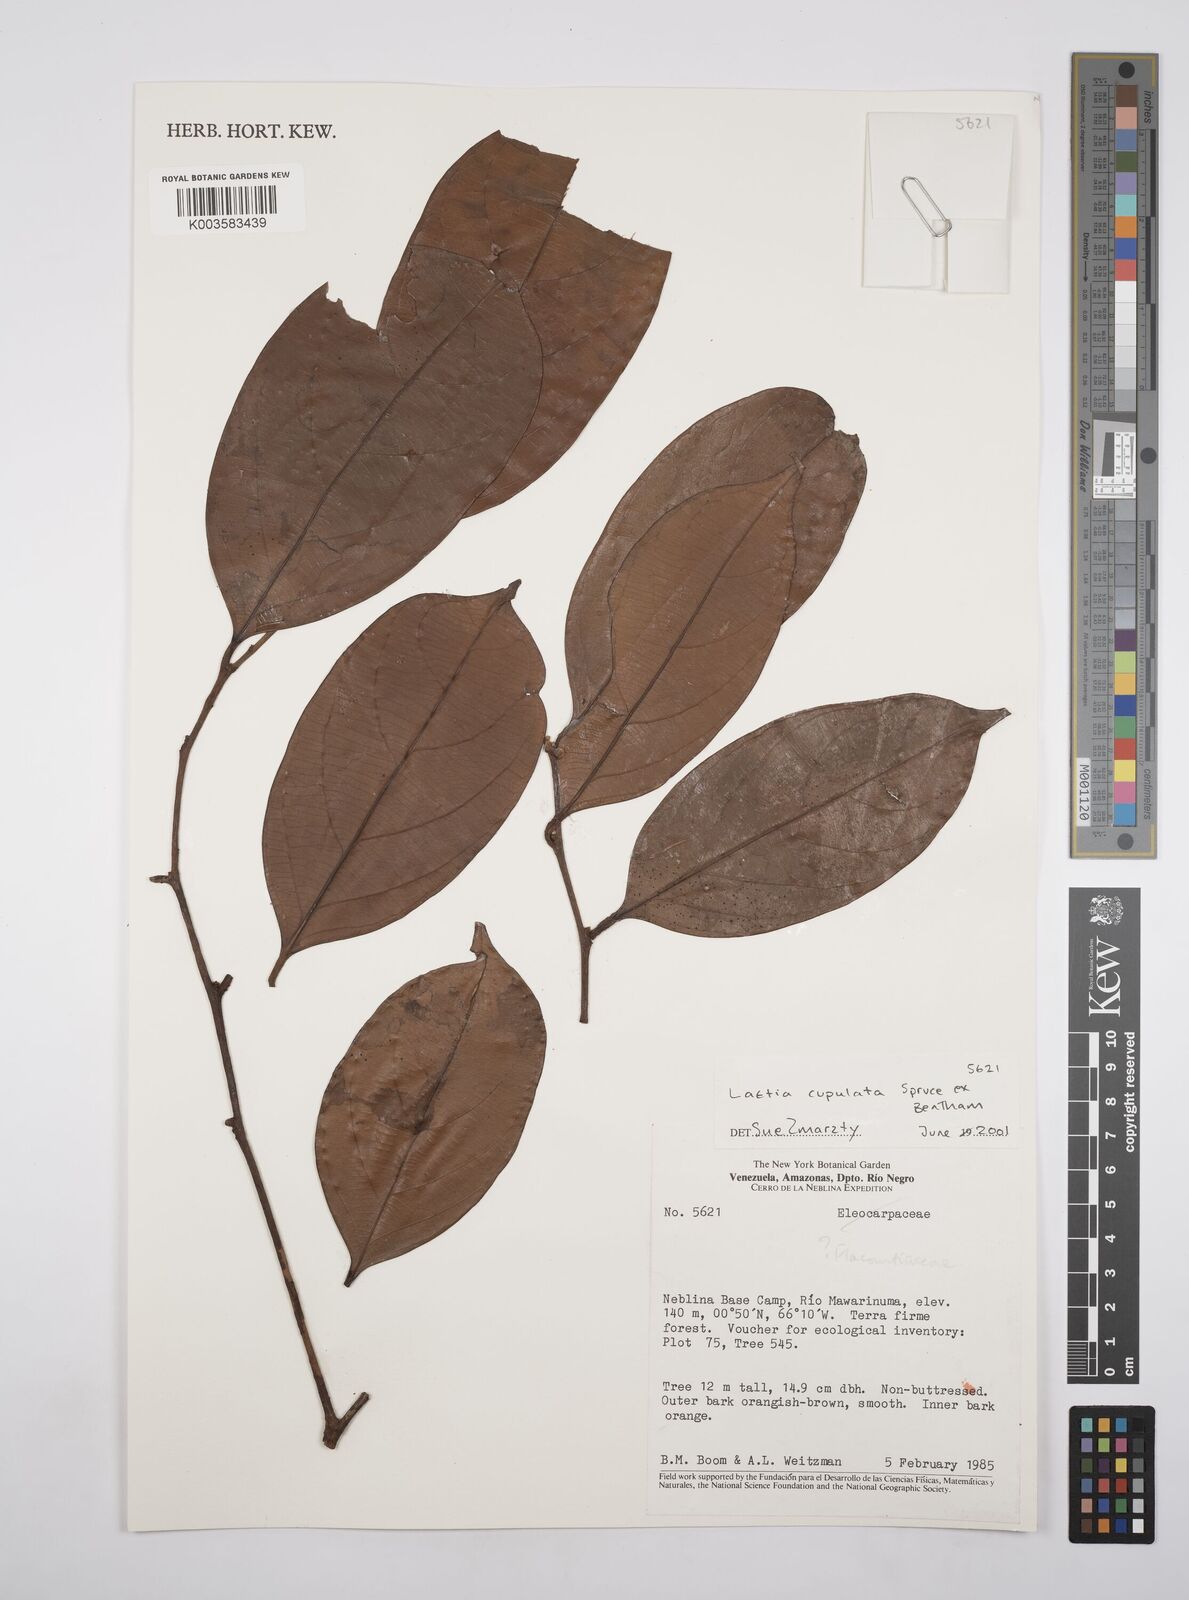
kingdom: Plantae
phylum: Tracheophyta
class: Magnoliopsida
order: Malpighiales
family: Salicaceae
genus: Irenodendron
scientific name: Irenodendron cupulatum
